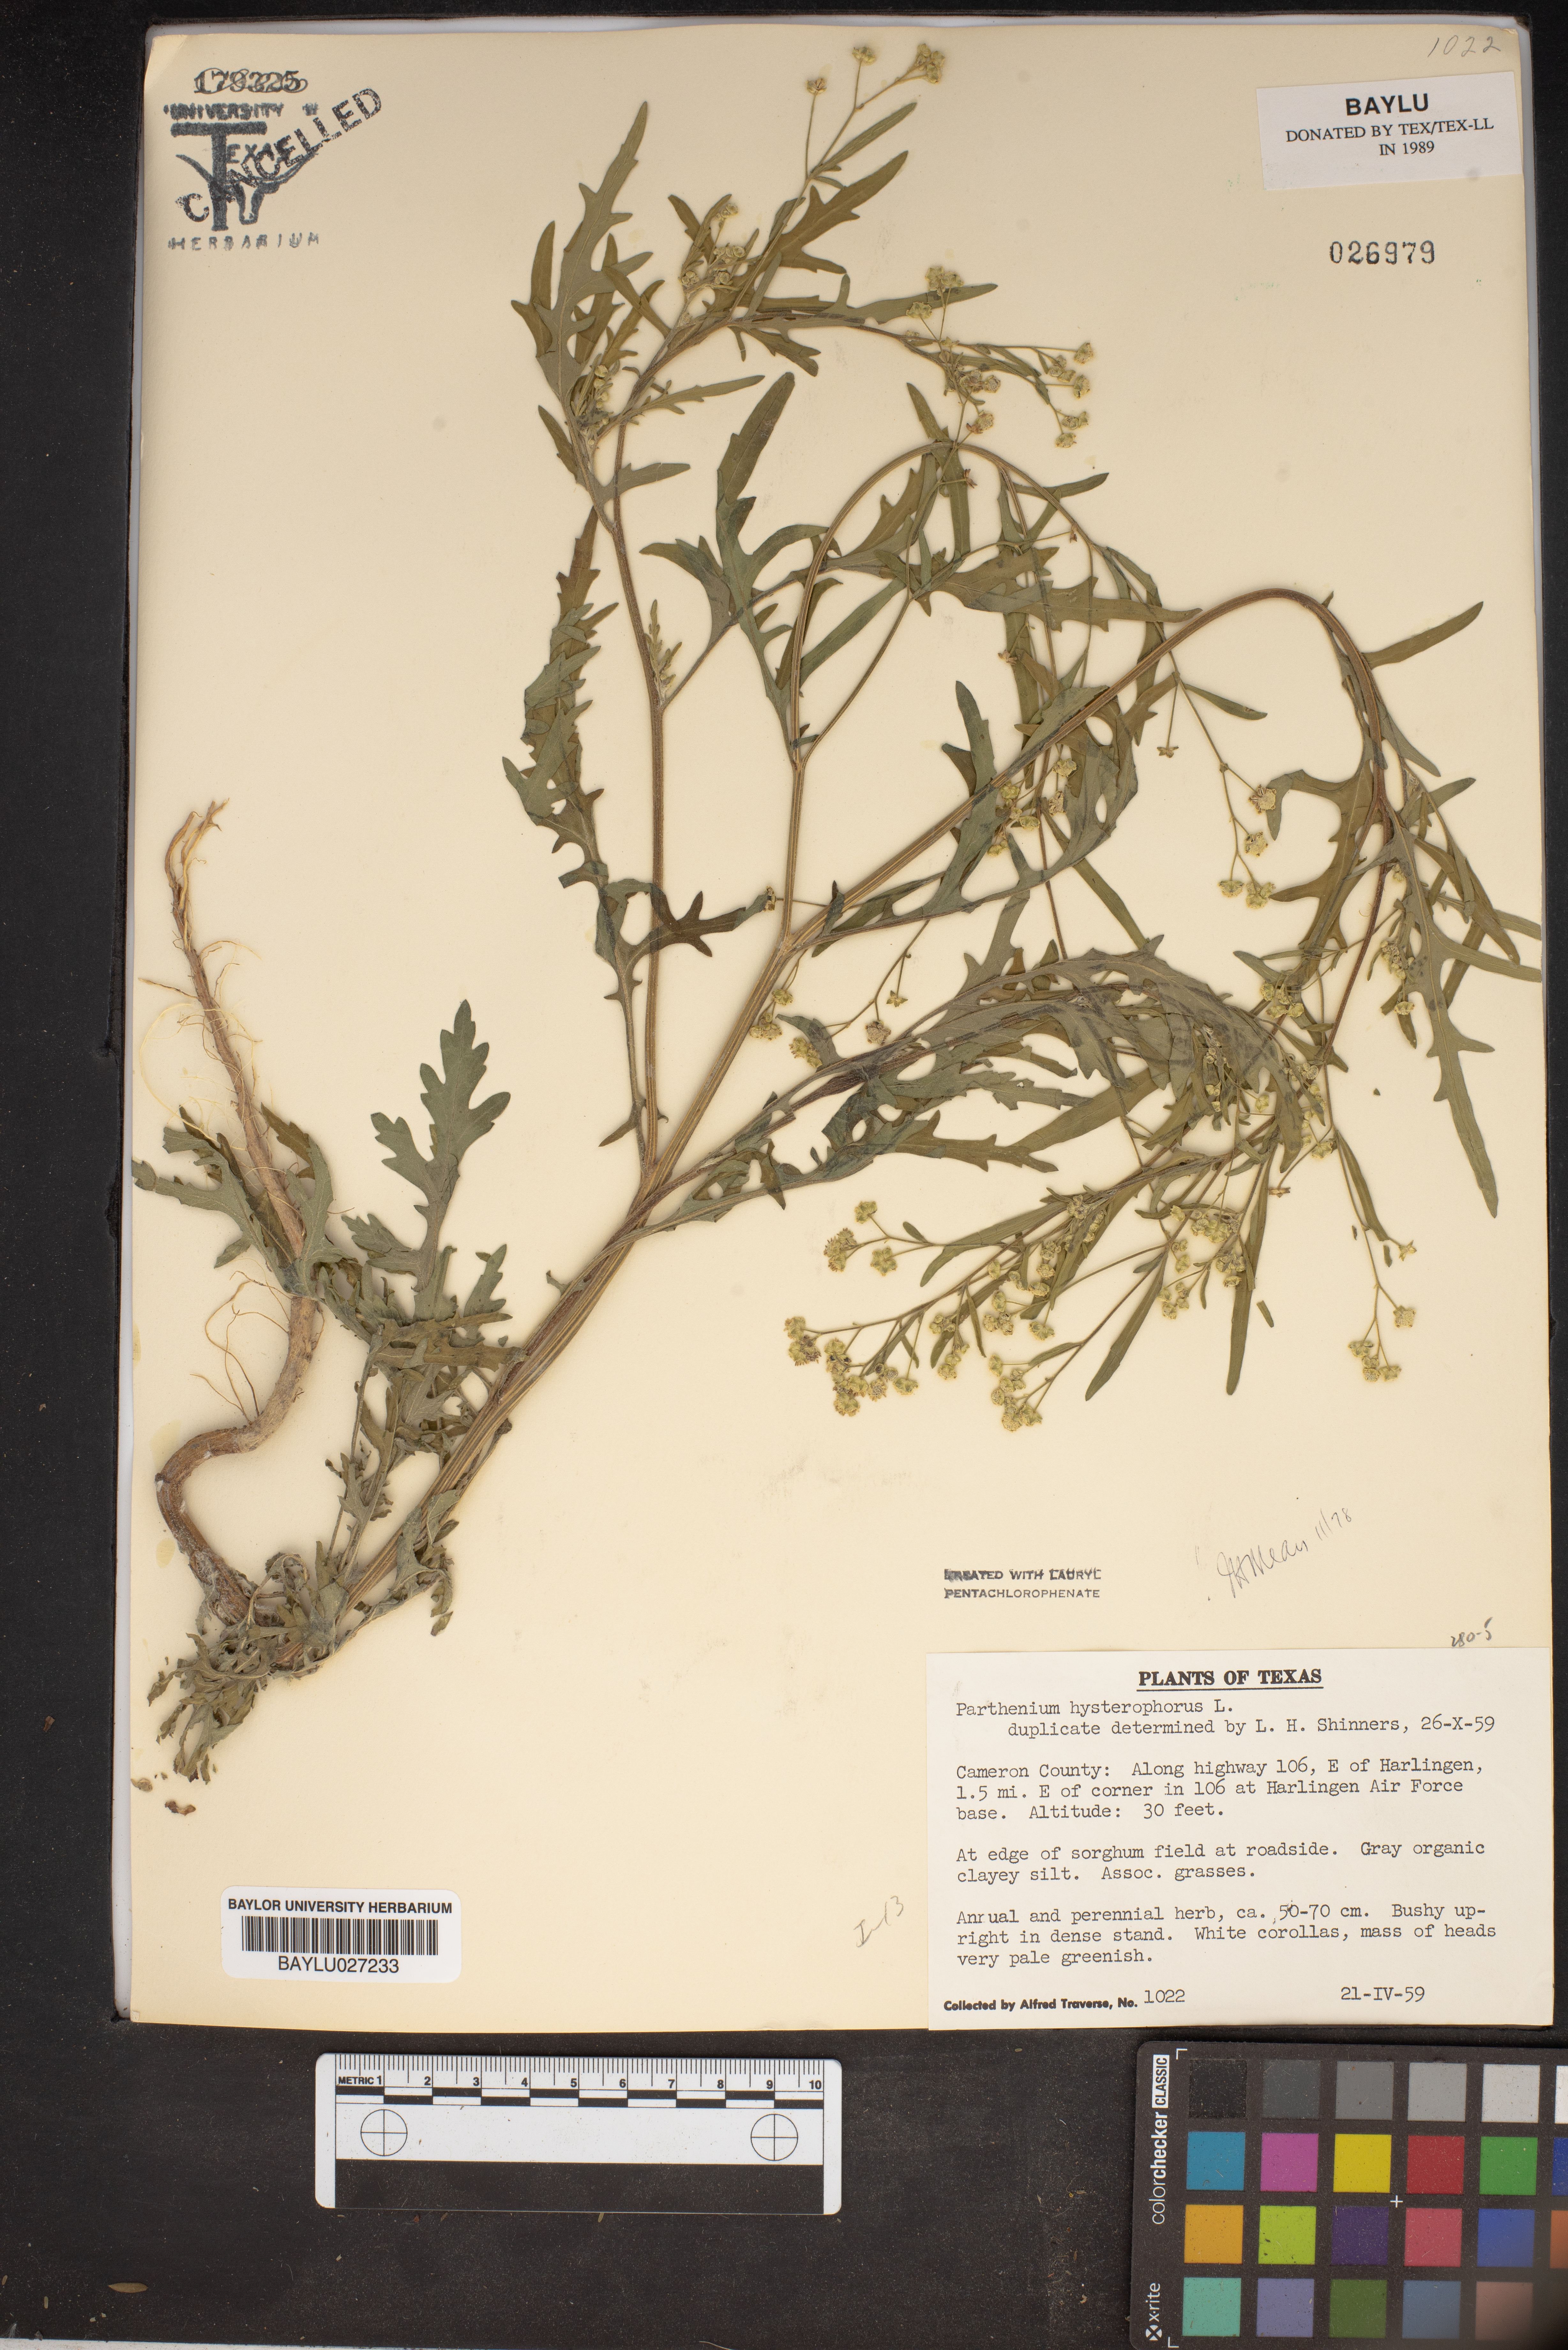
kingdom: Plantae
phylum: Tracheophyta
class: Magnoliopsida
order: Asterales
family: Asteraceae
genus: Parthenium
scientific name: Parthenium hysterophorus
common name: Santa maria feverfew
